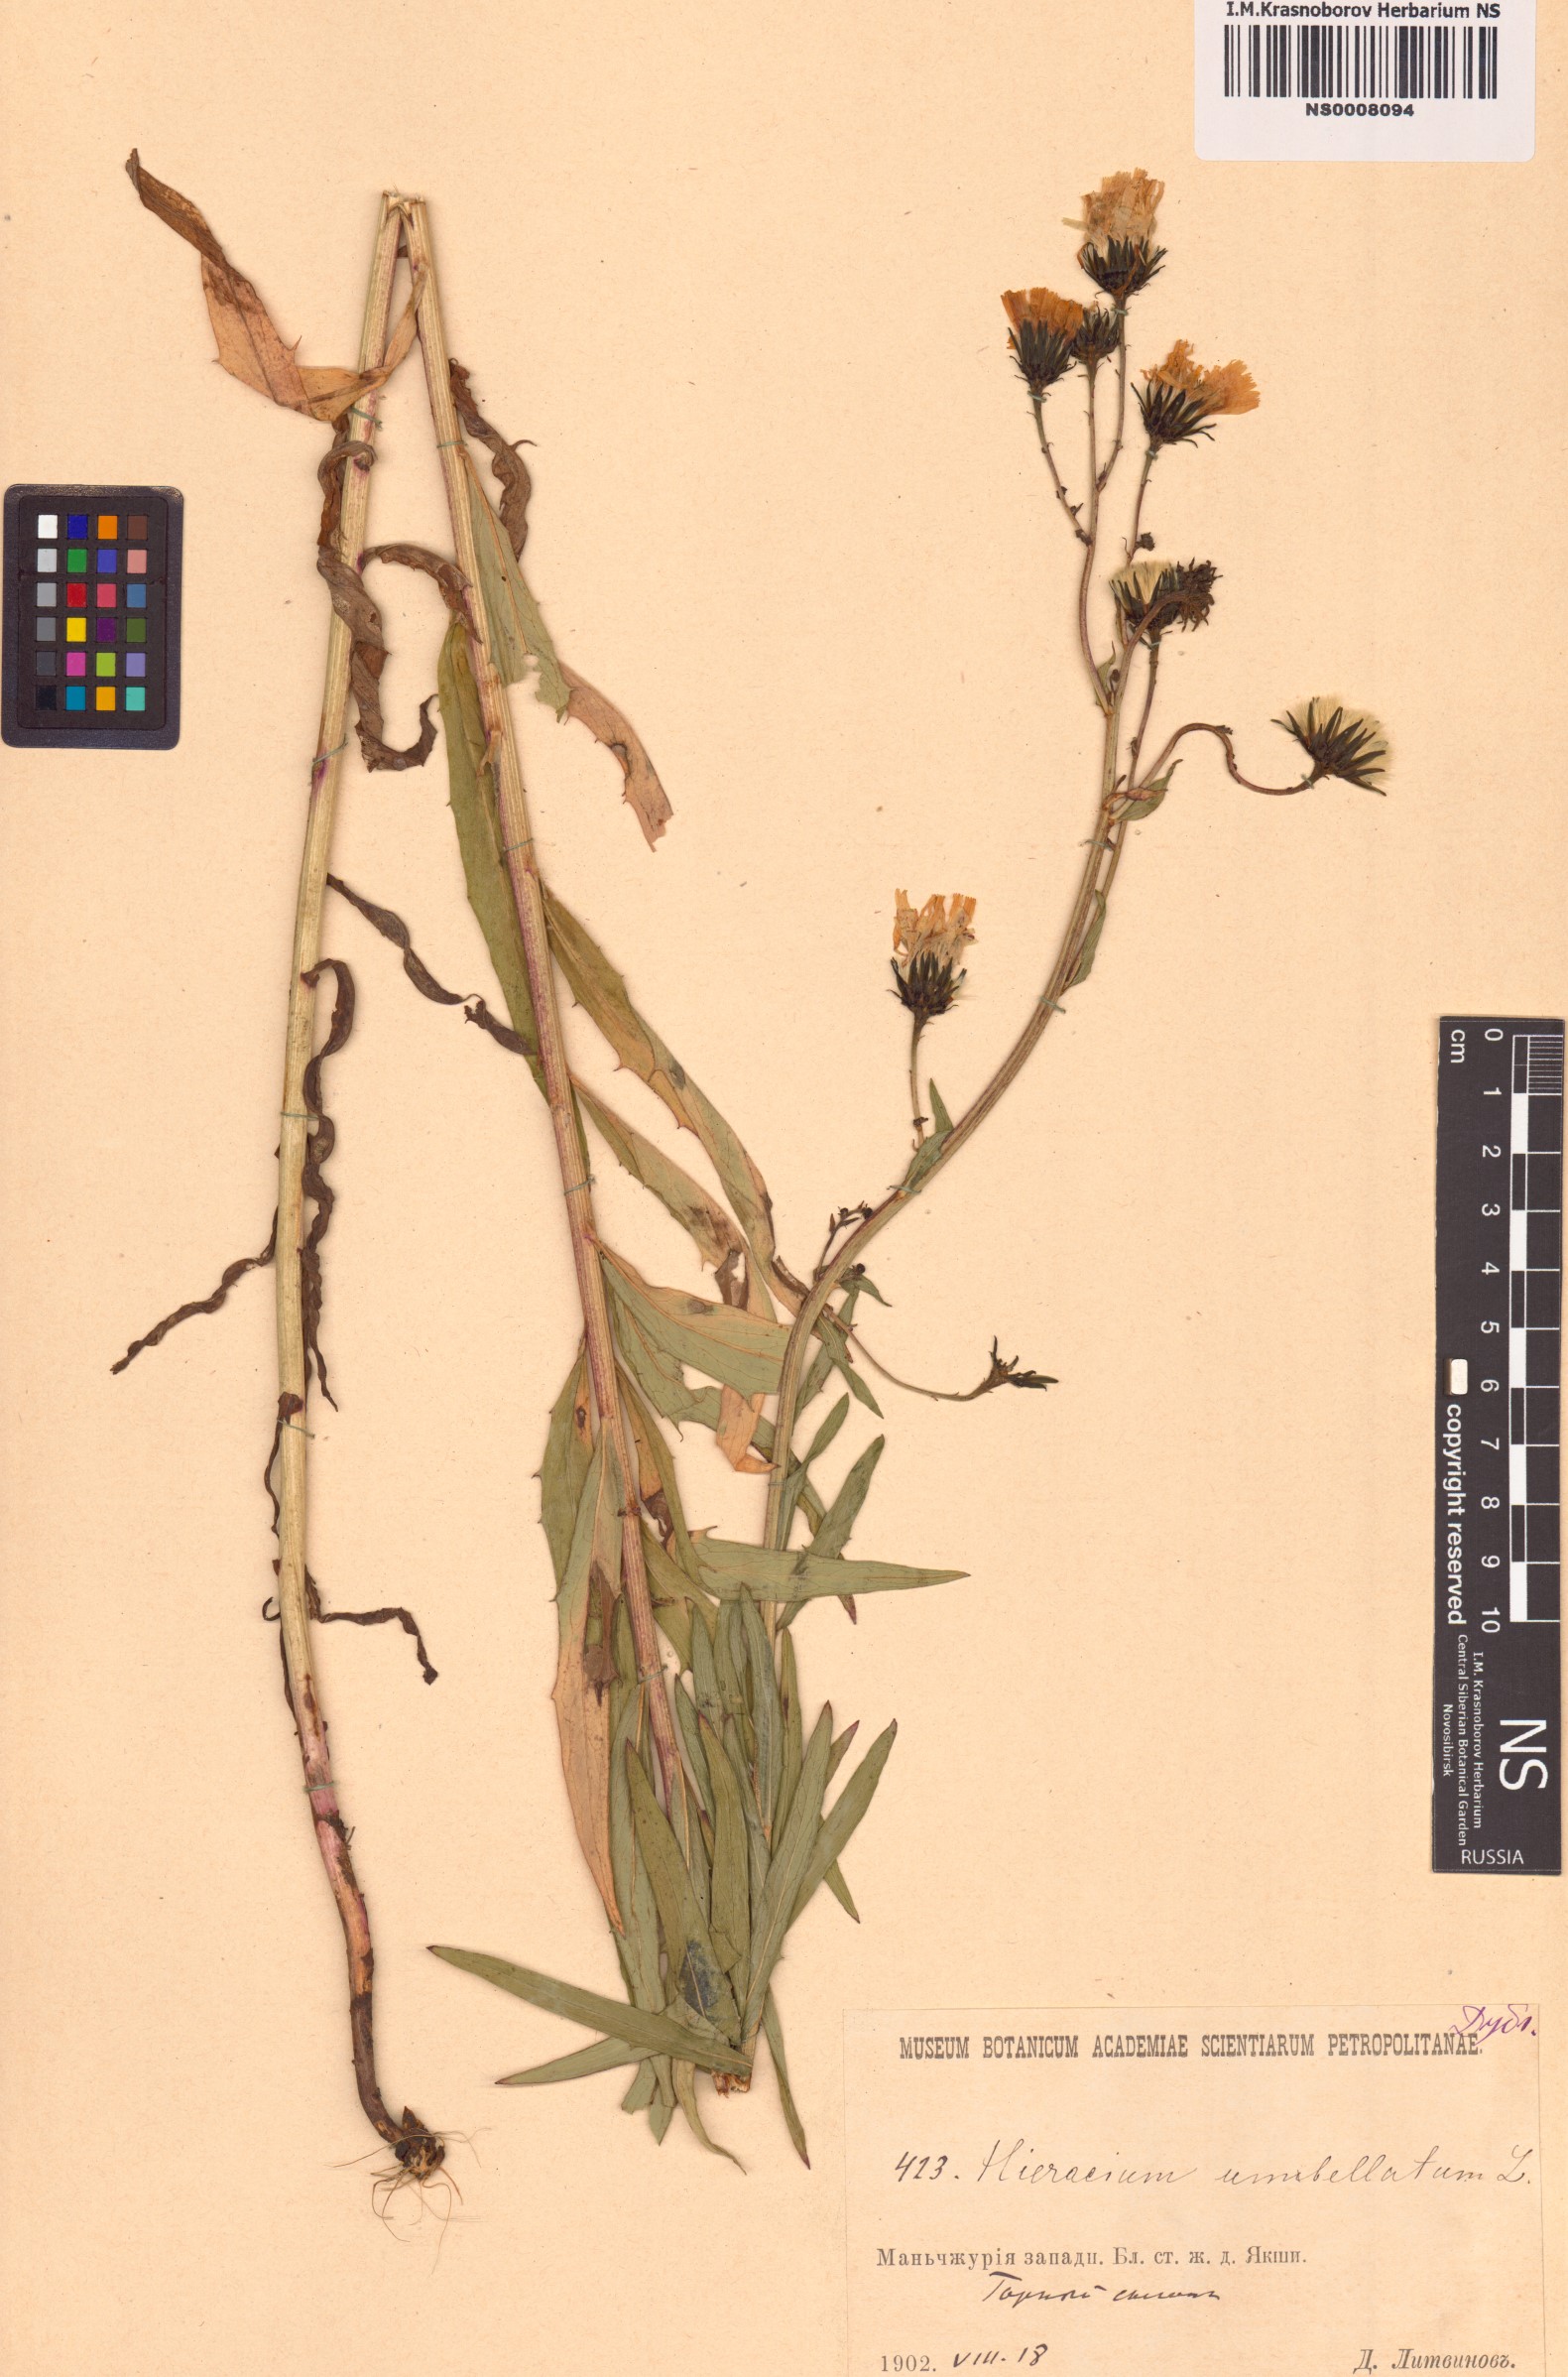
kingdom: Plantae
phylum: Tracheophyta
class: Magnoliopsida
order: Asterales
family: Asteraceae
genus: Hieracium
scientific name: Hieracium umbellatum
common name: Northern hawkweed
